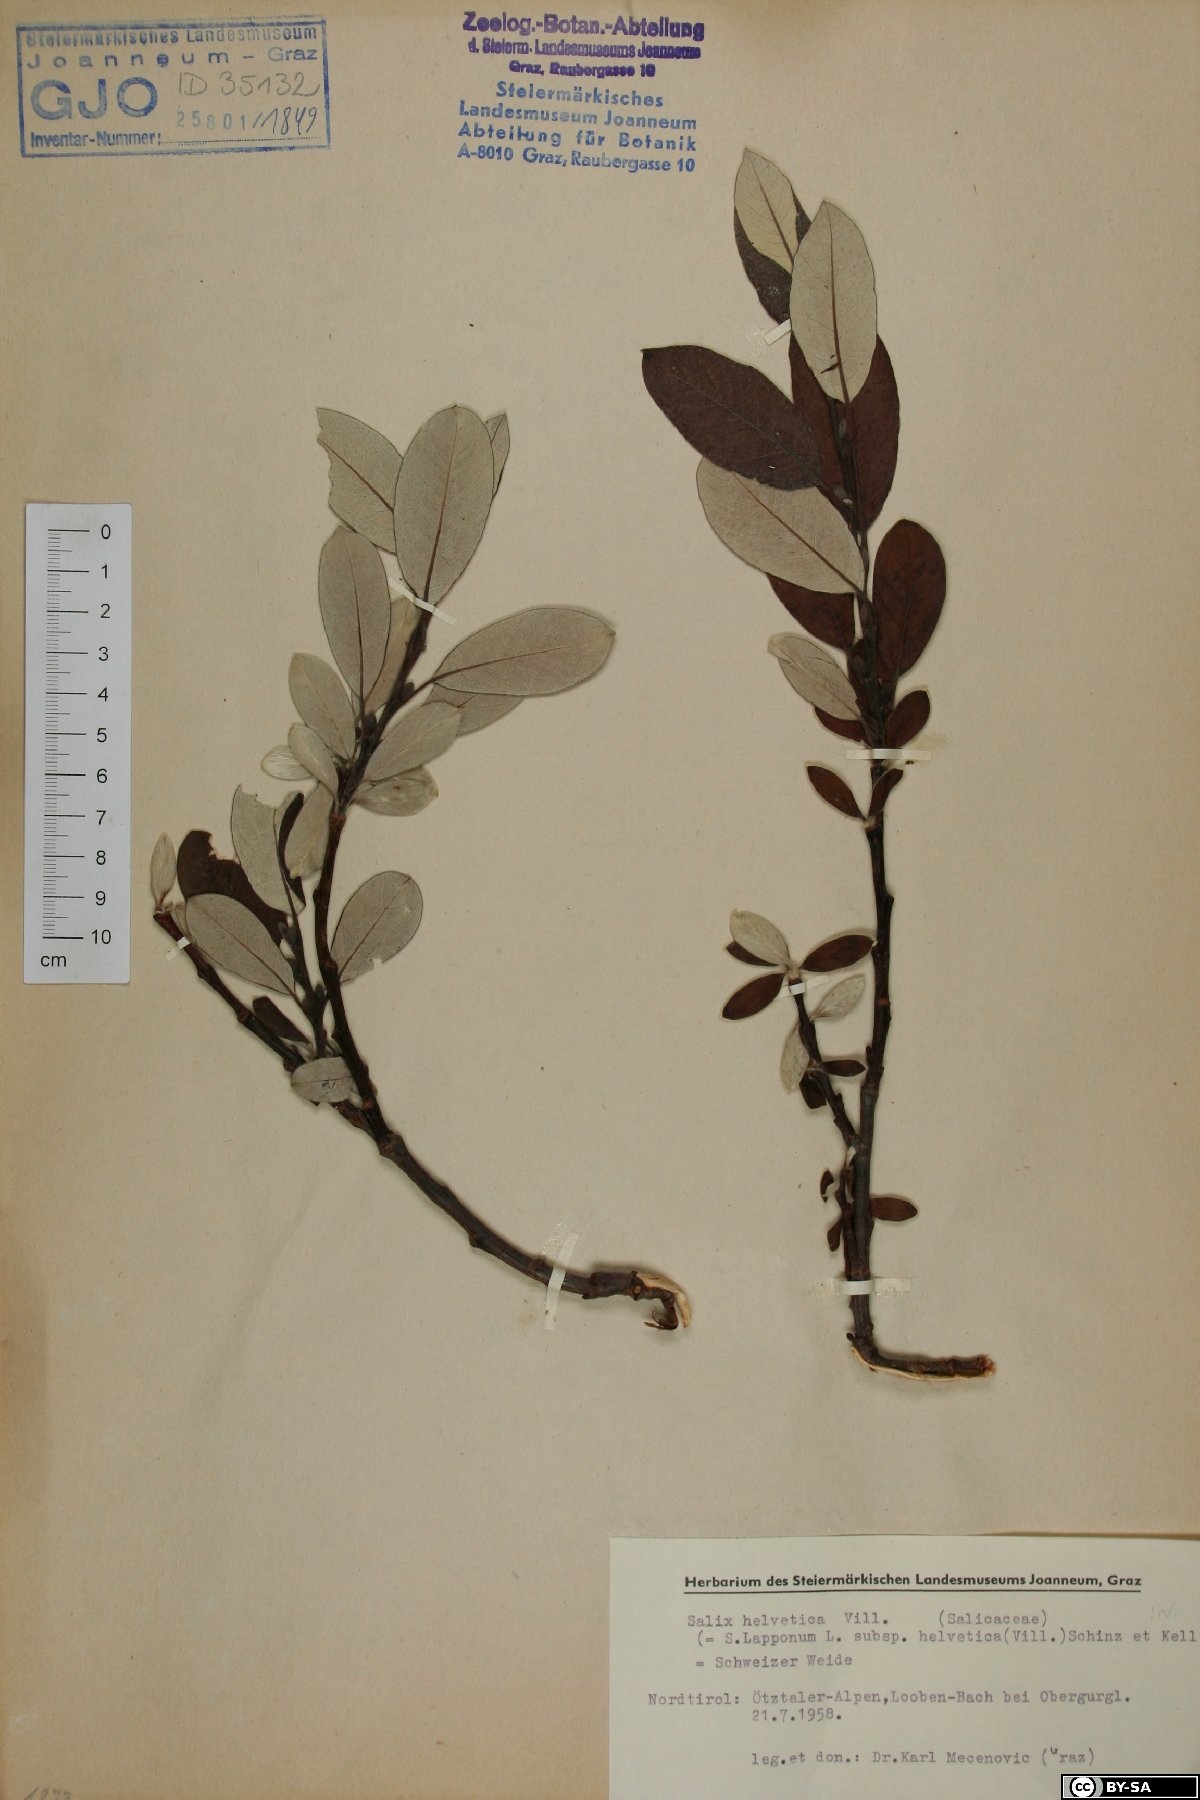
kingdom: Plantae
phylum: Tracheophyta
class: Magnoliopsida
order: Malpighiales
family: Salicaceae
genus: Salix
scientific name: Salix helvetica
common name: Swiss willow
